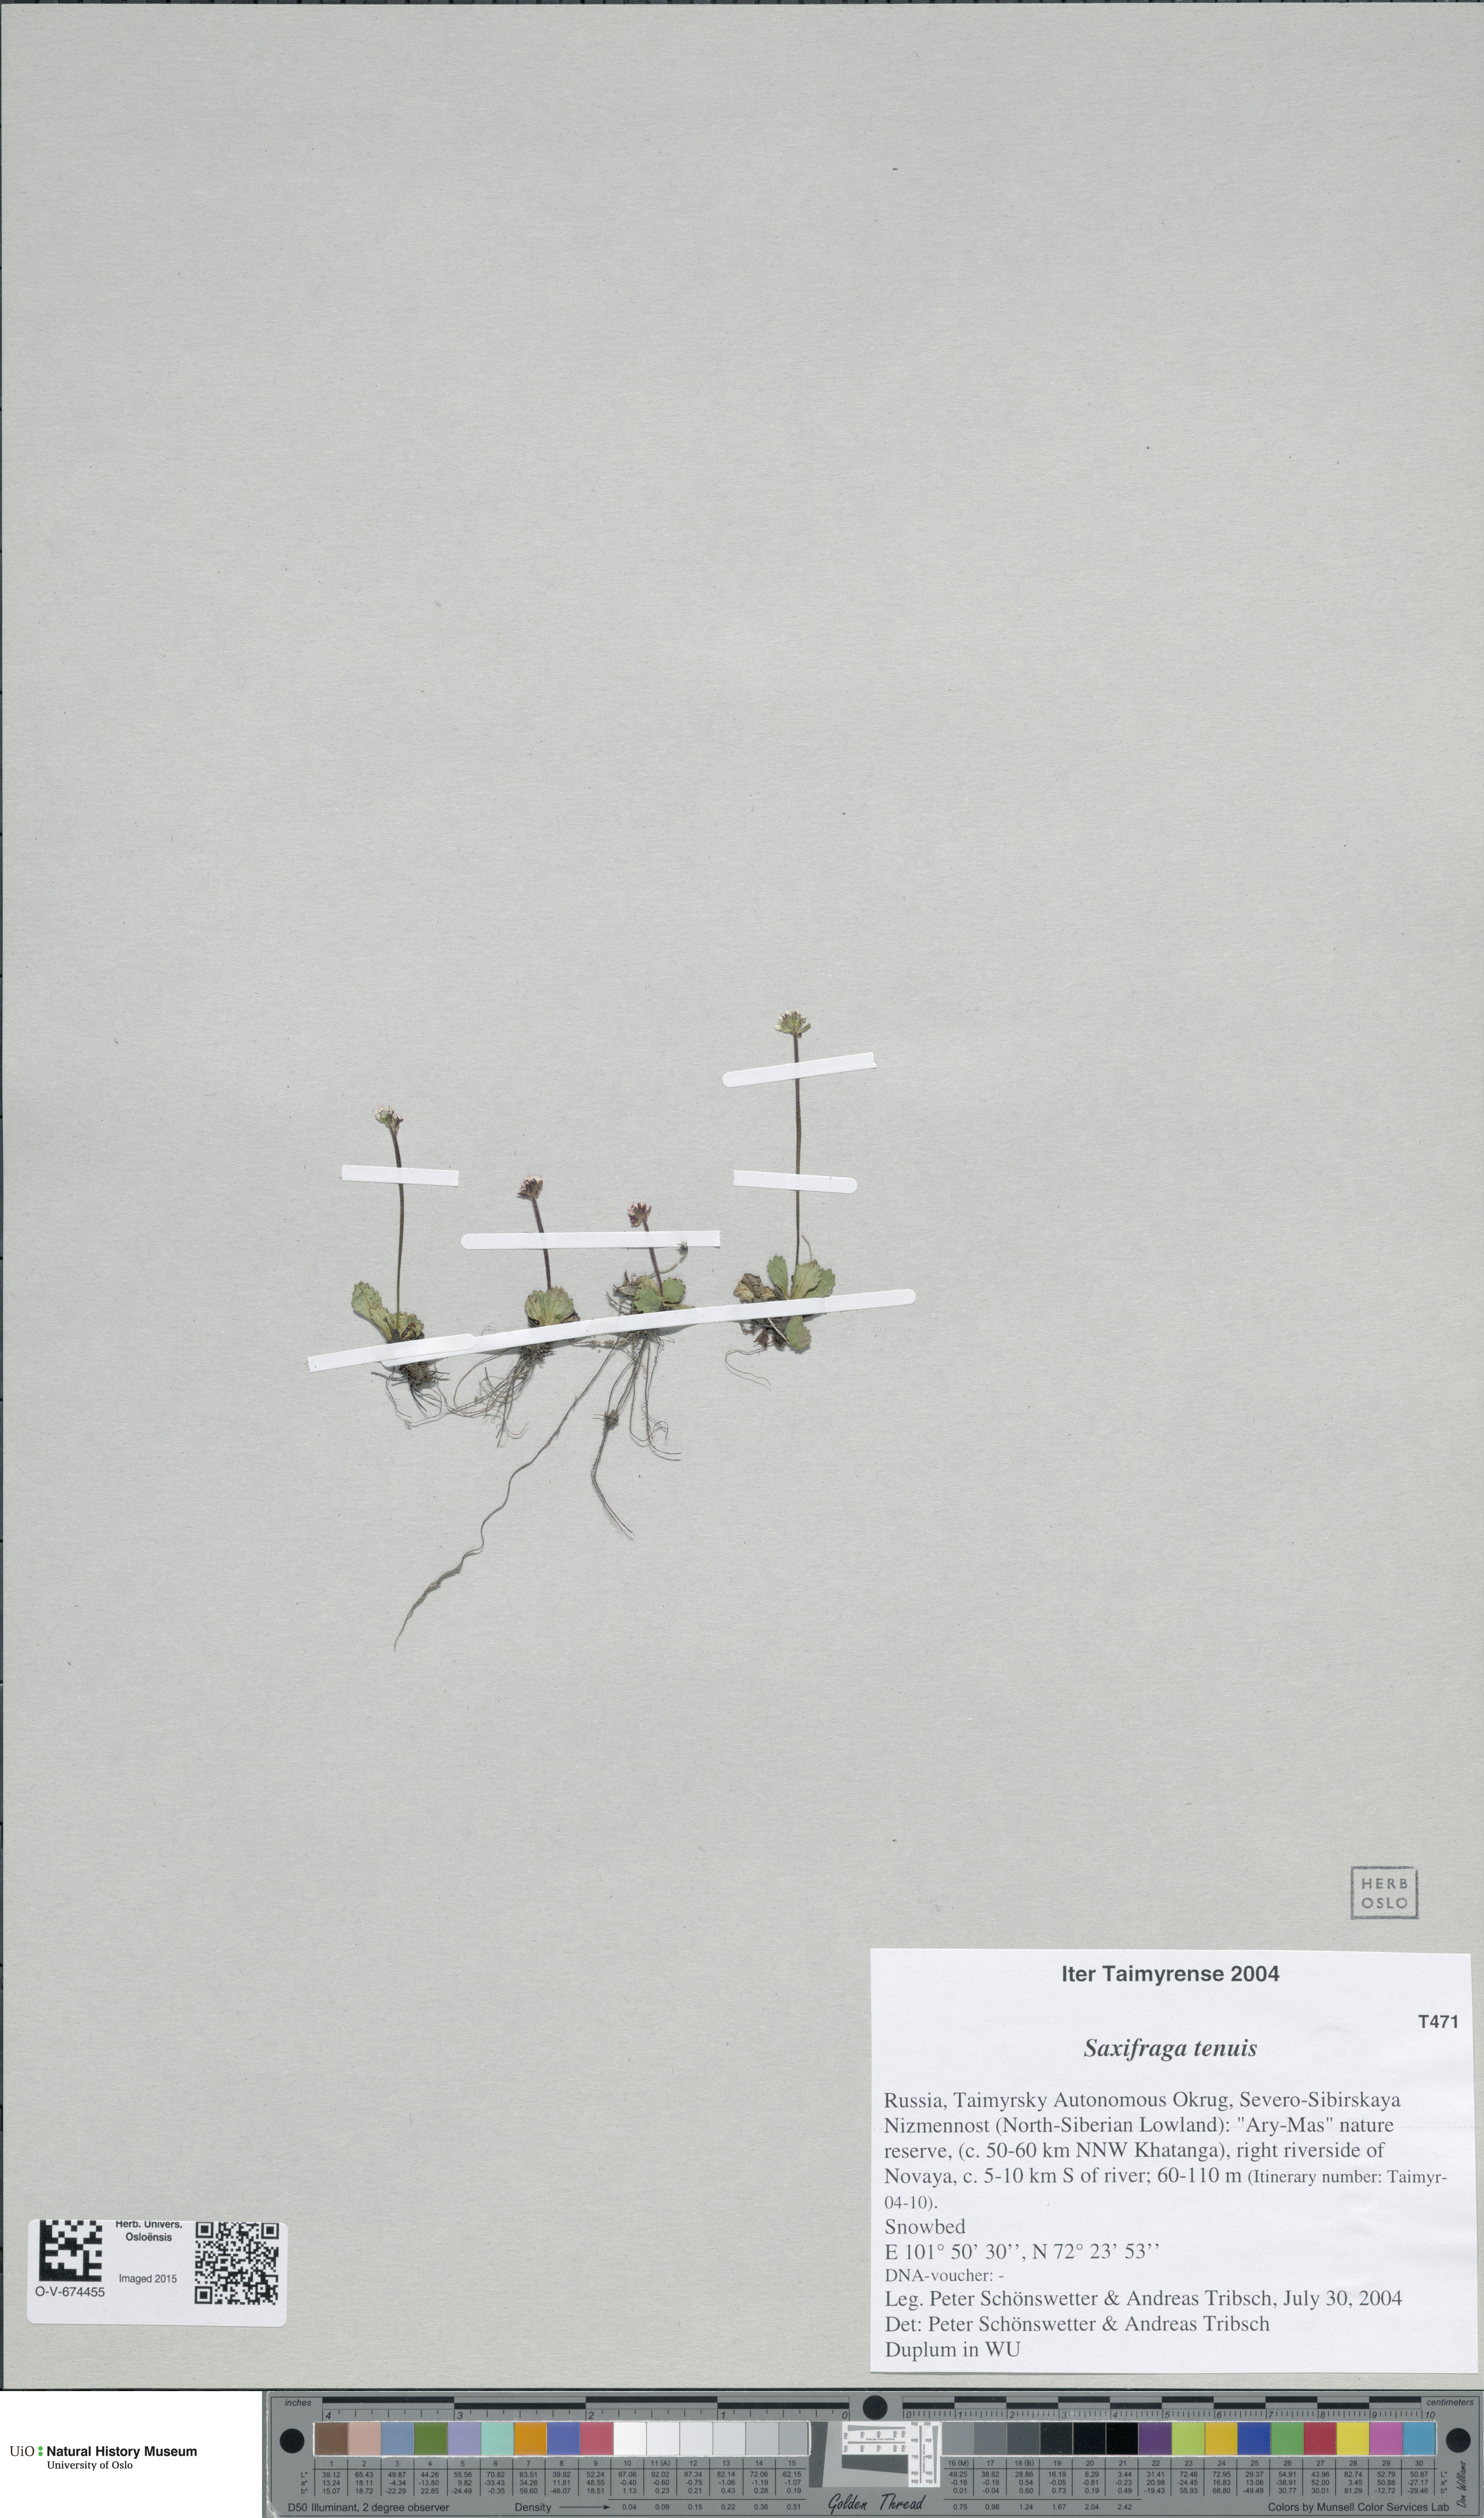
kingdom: Plantae
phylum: Tracheophyta
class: Magnoliopsida
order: Saxifragales
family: Saxifragaceae
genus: Micranthes
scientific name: Micranthes tenuis
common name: Ottertail pass saxifrage
